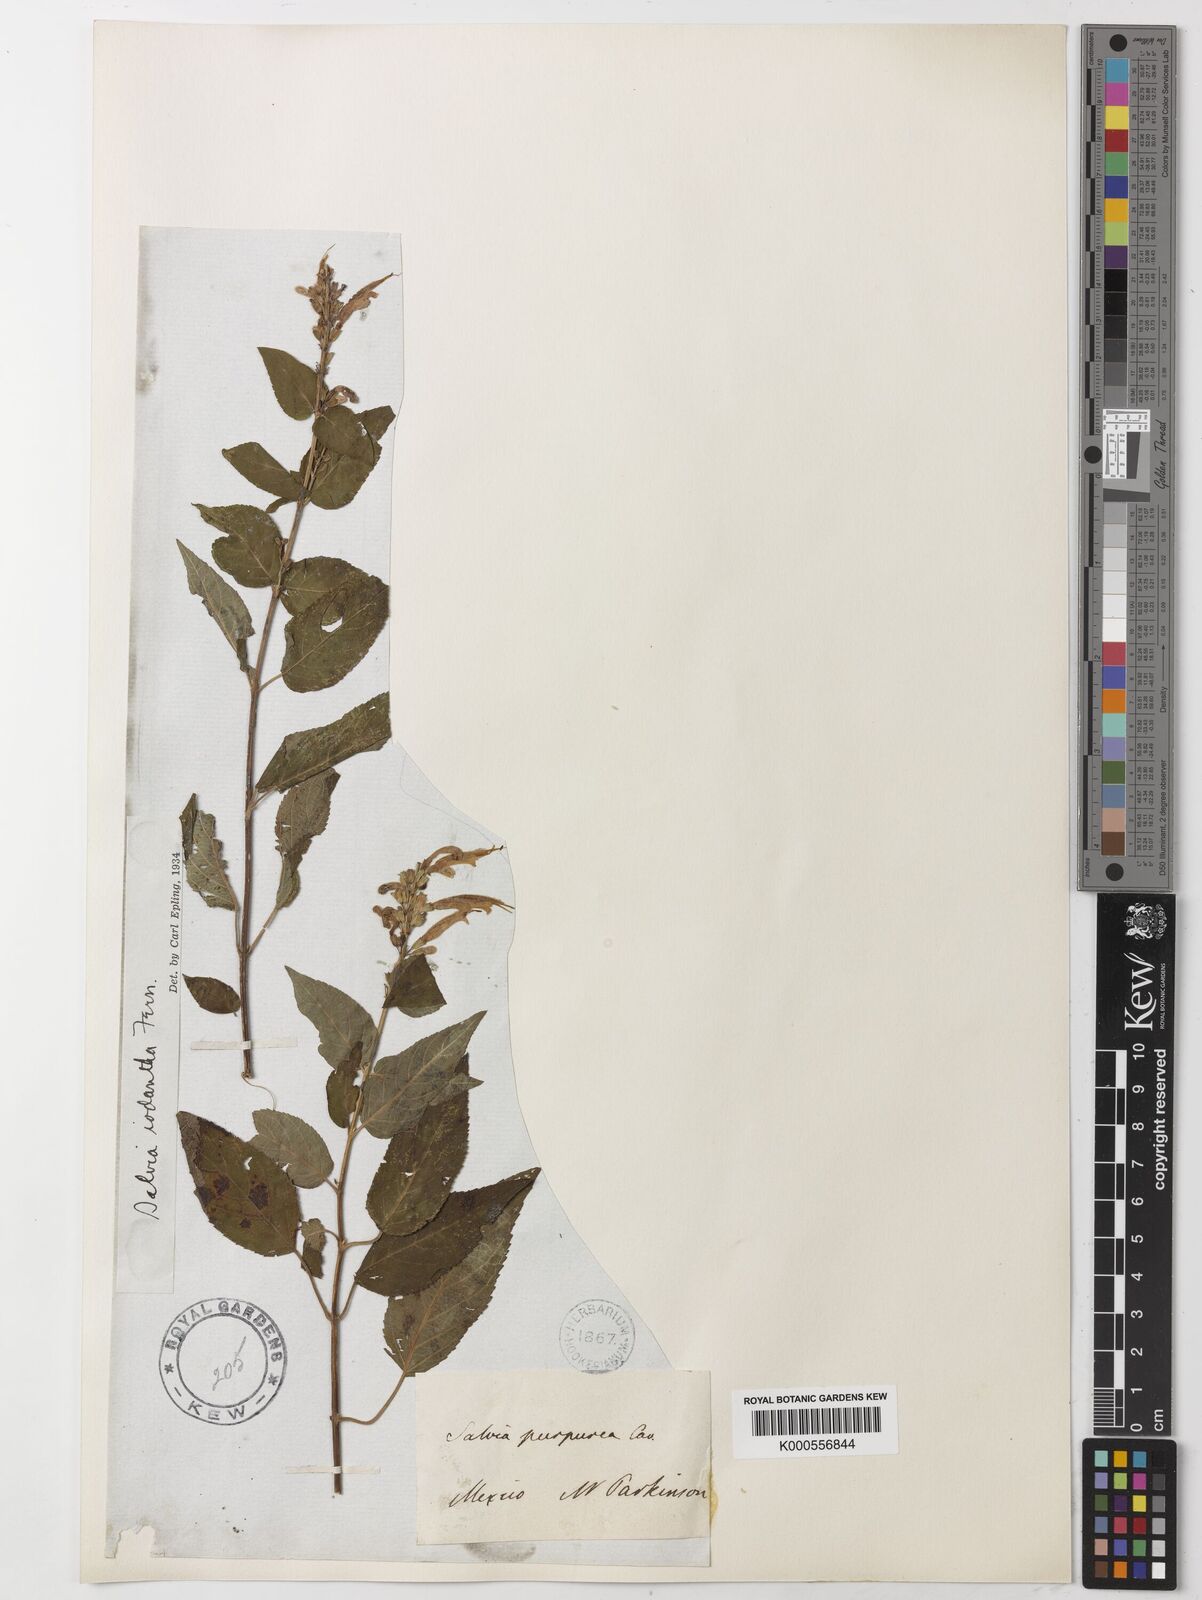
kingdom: Plantae
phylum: Tracheophyta
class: Magnoliopsida
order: Lamiales
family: Lamiaceae
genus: Salvia
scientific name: Salvia iodantha
